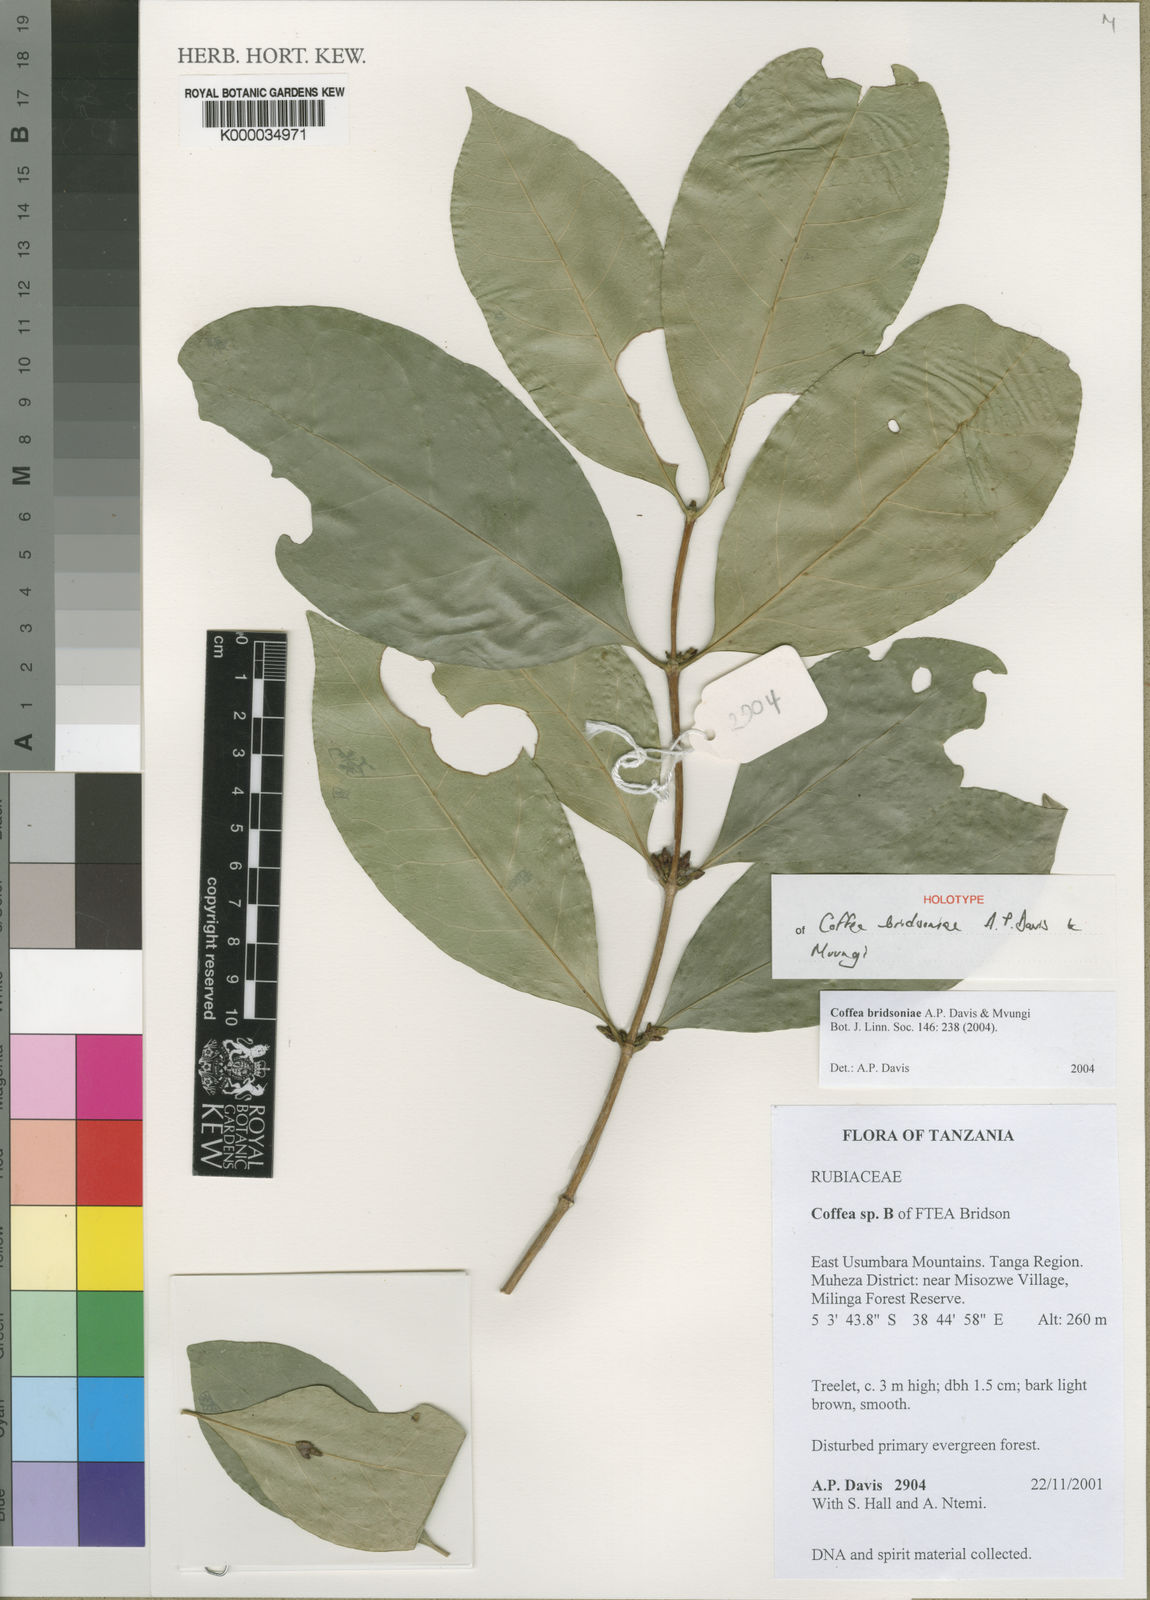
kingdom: Plantae
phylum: Tracheophyta
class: Magnoliopsida
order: Gentianales
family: Rubiaceae
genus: Coffea
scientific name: Coffea bridsoniae
